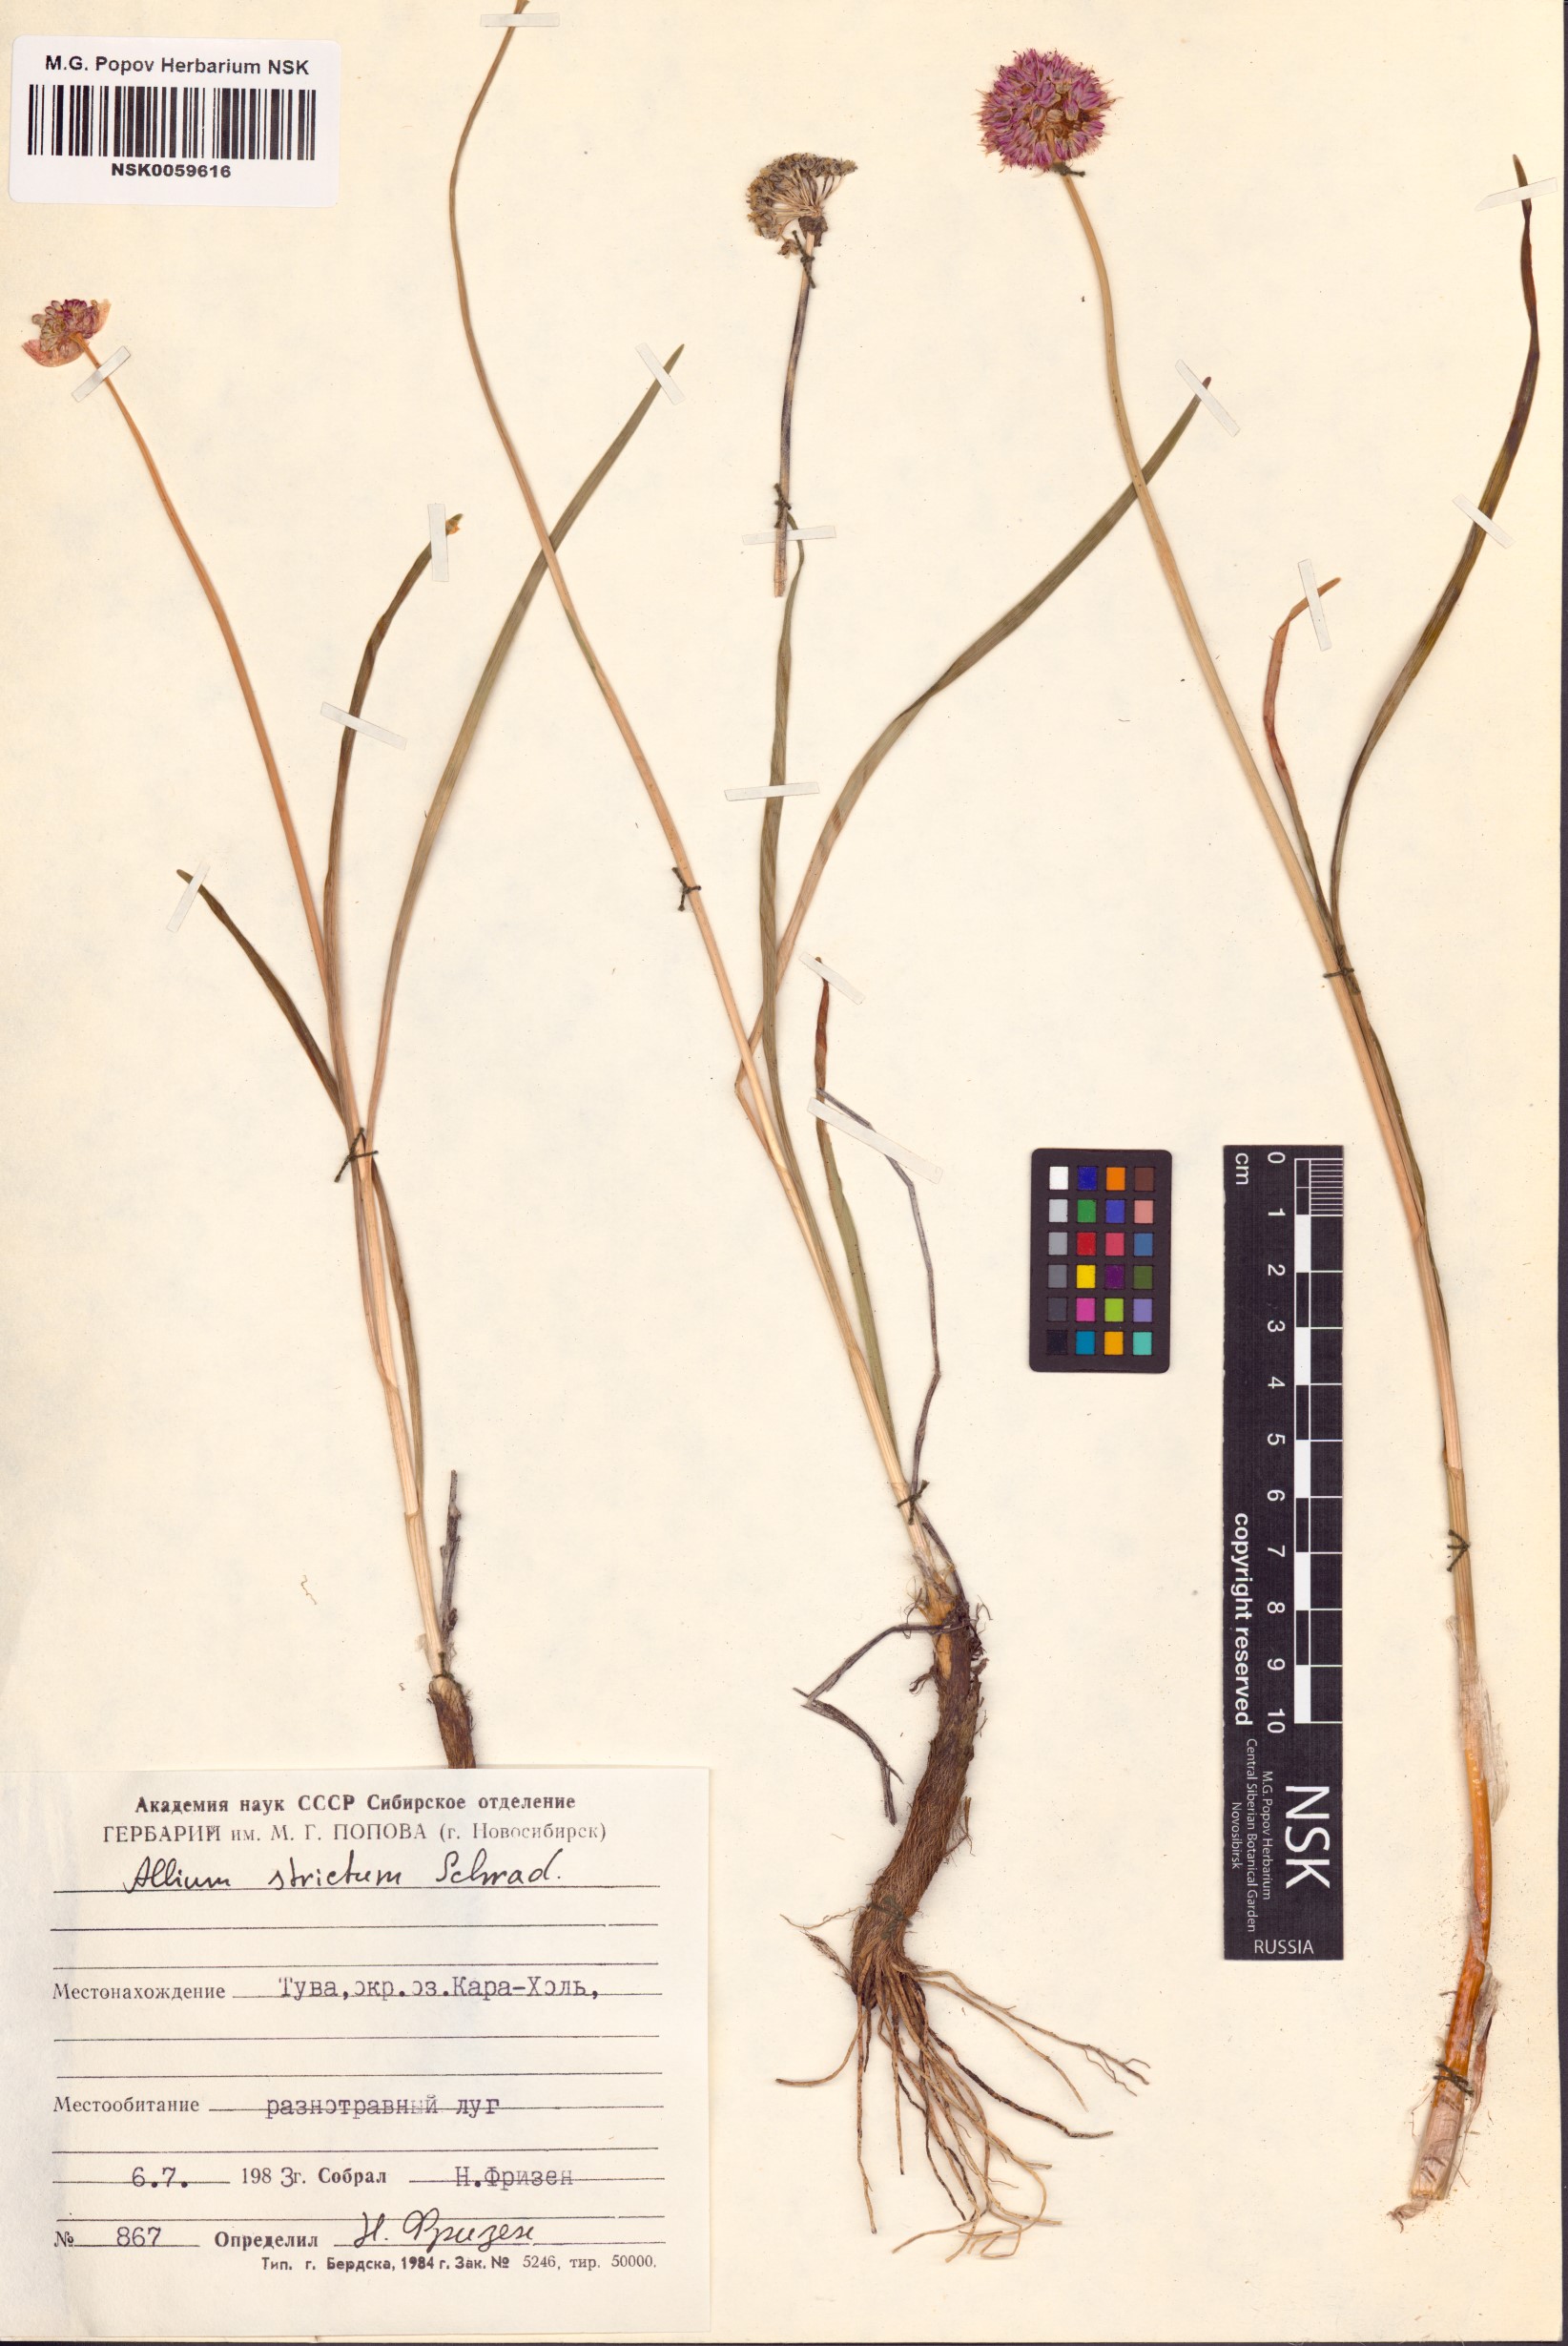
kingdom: Plantae
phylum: Tracheophyta
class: Liliopsida
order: Asparagales
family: Amaryllidaceae
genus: Allium
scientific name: Allium strictum
